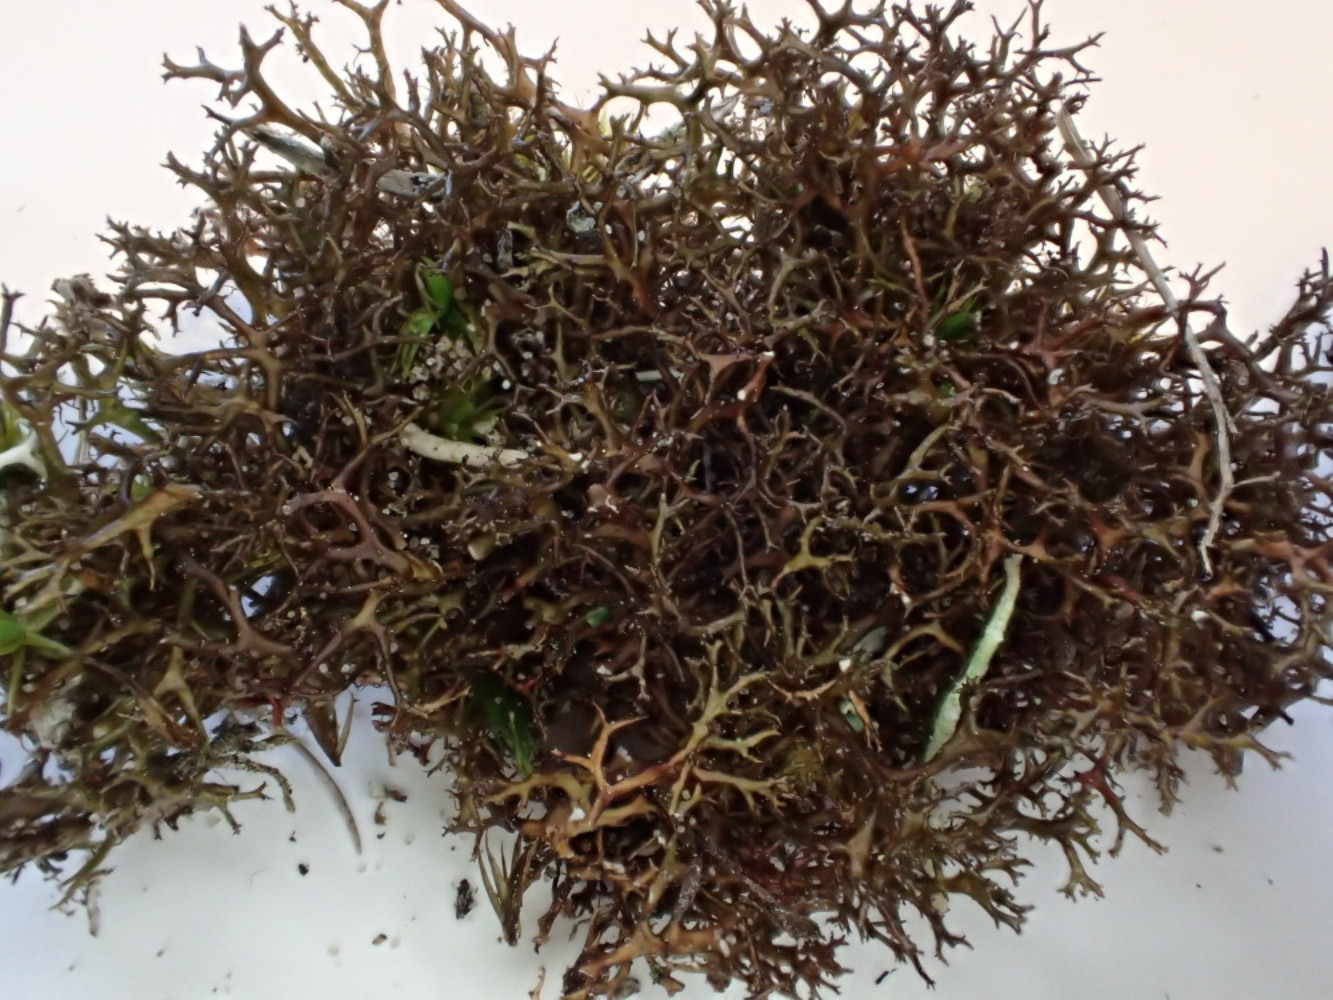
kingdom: Fungi
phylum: Ascomycota
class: Lecanoromycetes
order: Lecanorales
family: Parmeliaceae
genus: Cetraria
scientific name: Cetraria muricata
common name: tue-tjørnelav
